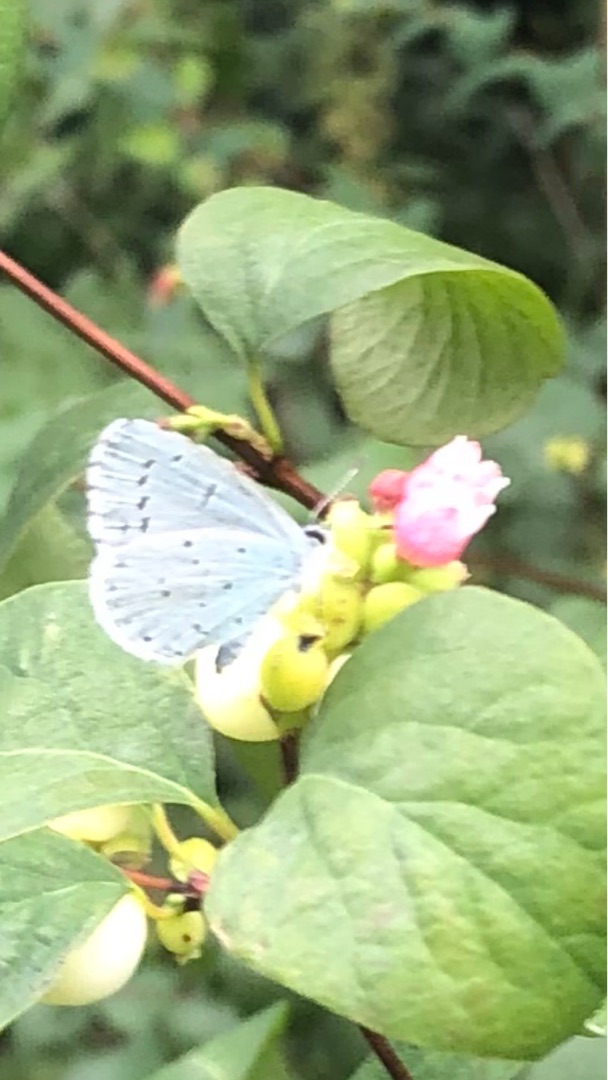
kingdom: Animalia
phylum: Arthropoda
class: Insecta
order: Lepidoptera
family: Lycaenidae
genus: Celastrina
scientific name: Celastrina argiolus
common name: Skovblåfugl
